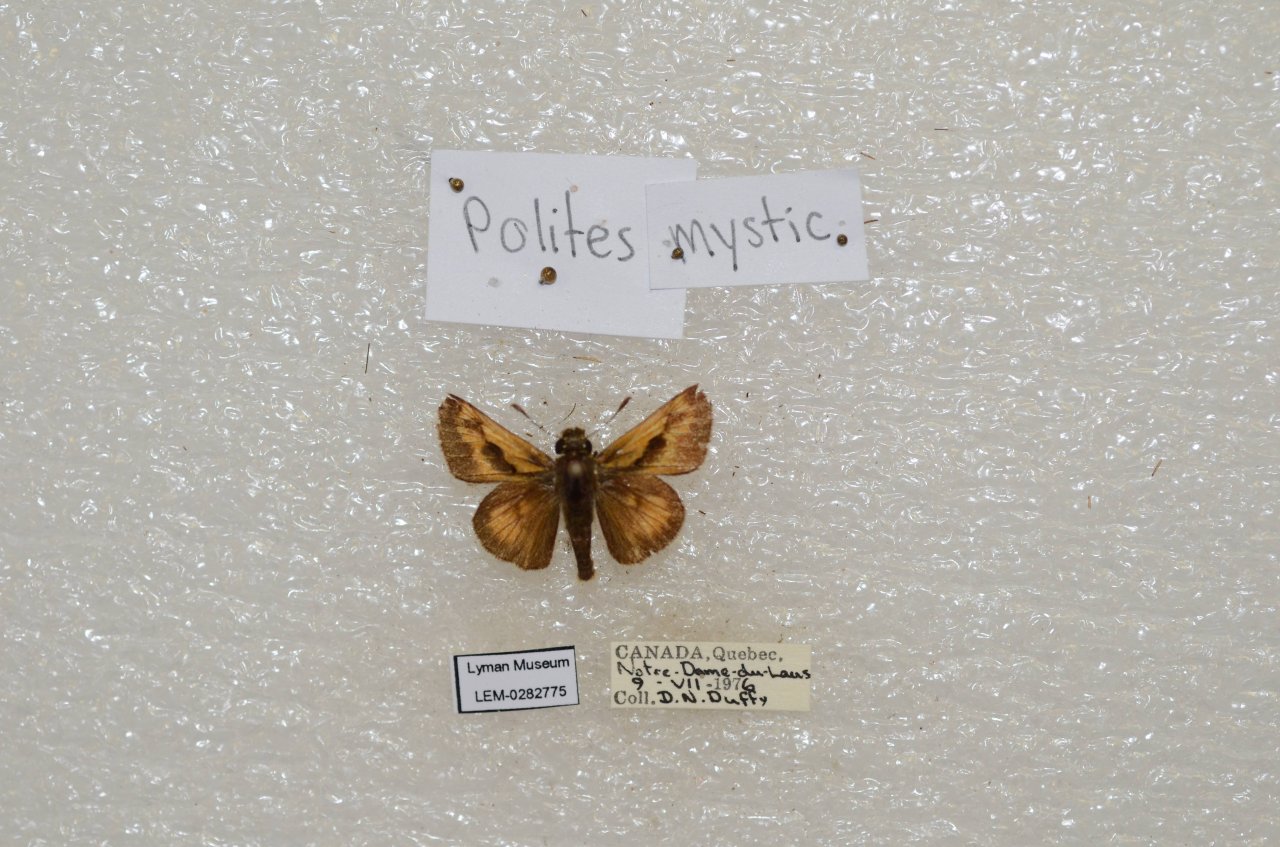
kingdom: Animalia
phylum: Arthropoda
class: Insecta
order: Lepidoptera
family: Hesperiidae
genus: Polites
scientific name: Polites
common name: Long Dash Skipper
